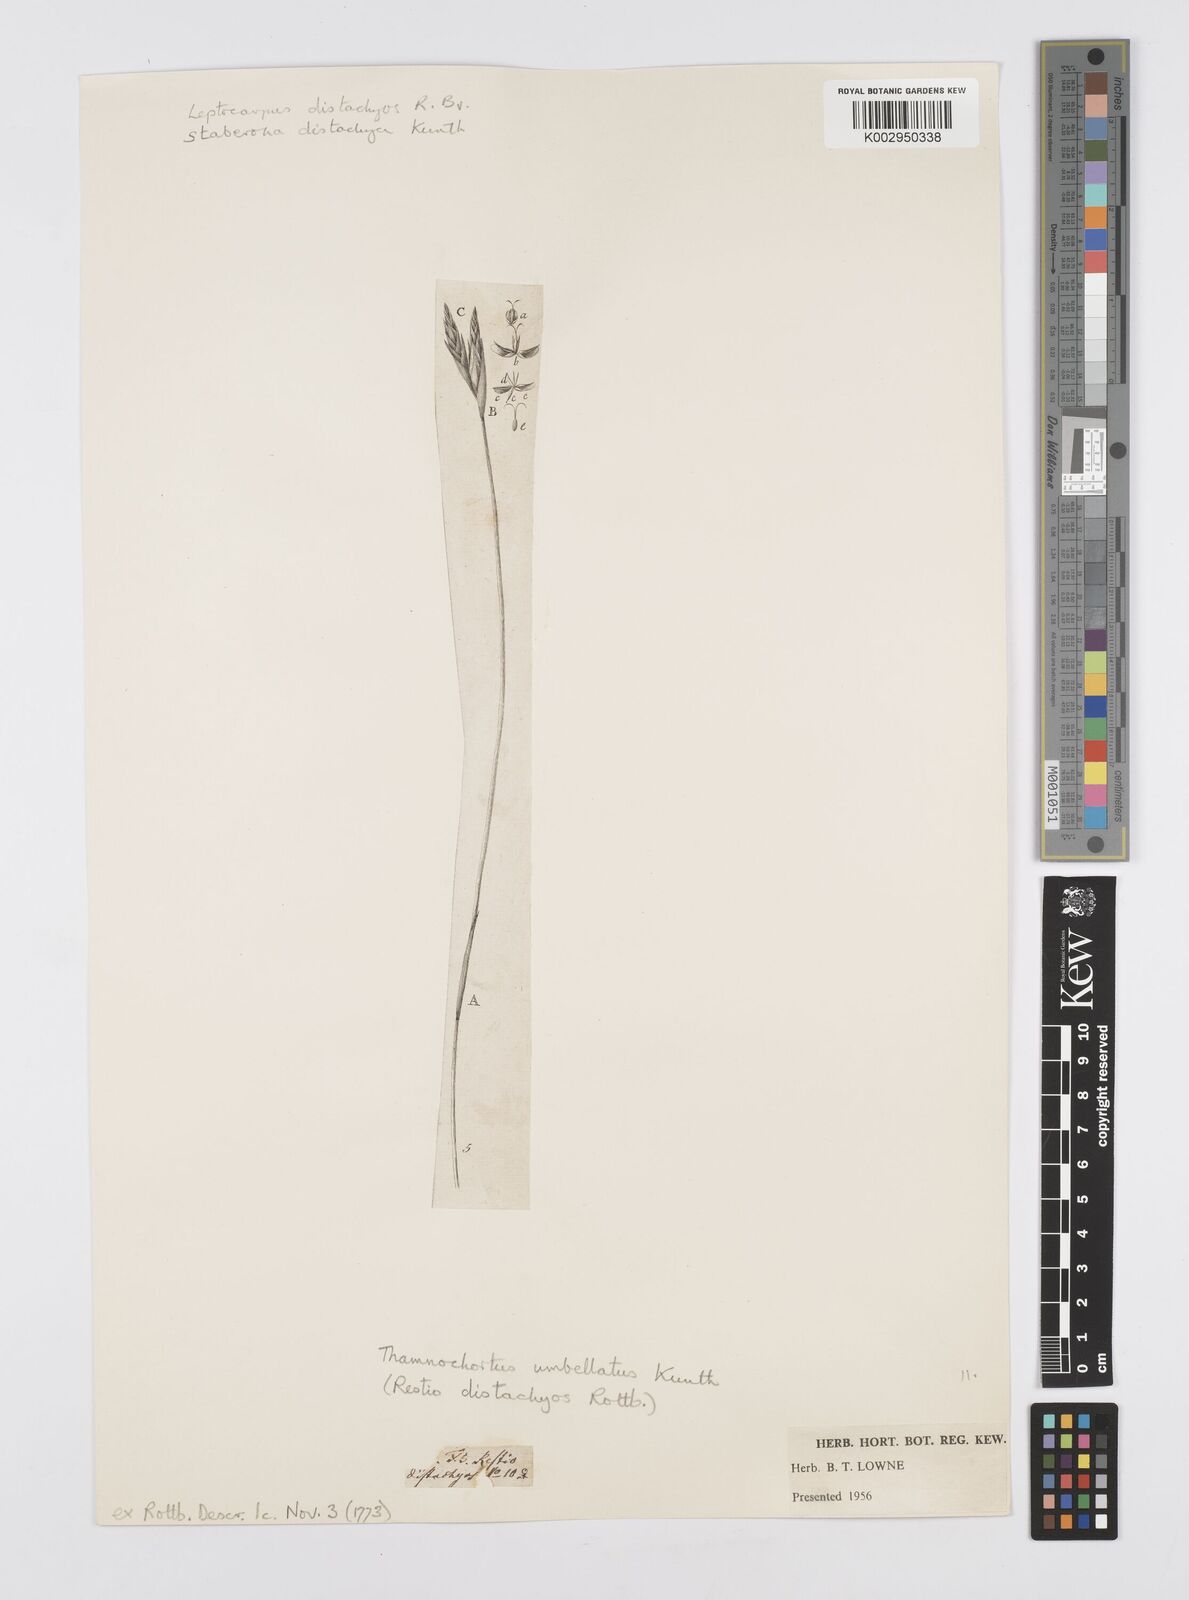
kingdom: Plantae
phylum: Tracheophyta
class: Liliopsida
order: Poales
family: Restionaceae
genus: Staberoha
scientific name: Staberoha distachyos
